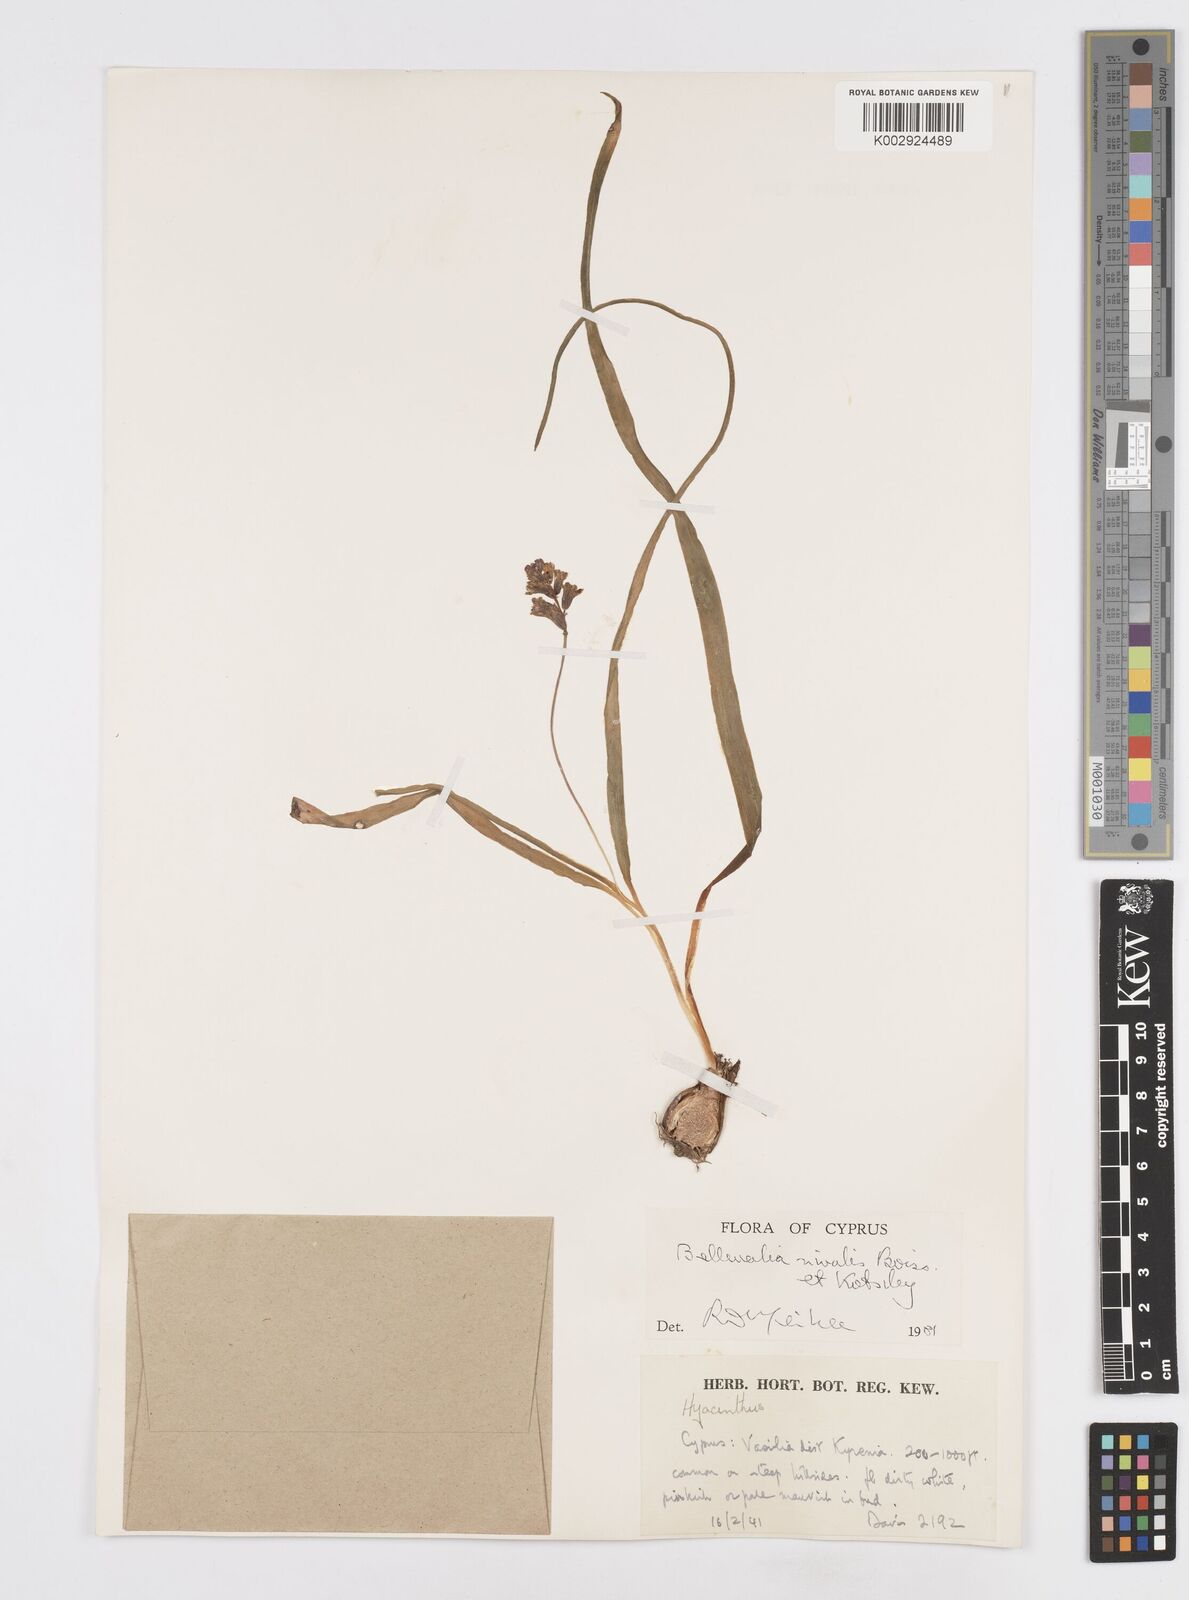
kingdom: Plantae
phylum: Tracheophyta
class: Liliopsida
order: Asparagales
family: Asparagaceae
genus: Bellevalia
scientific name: Bellevalia nivalis
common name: Snow bellevalia
